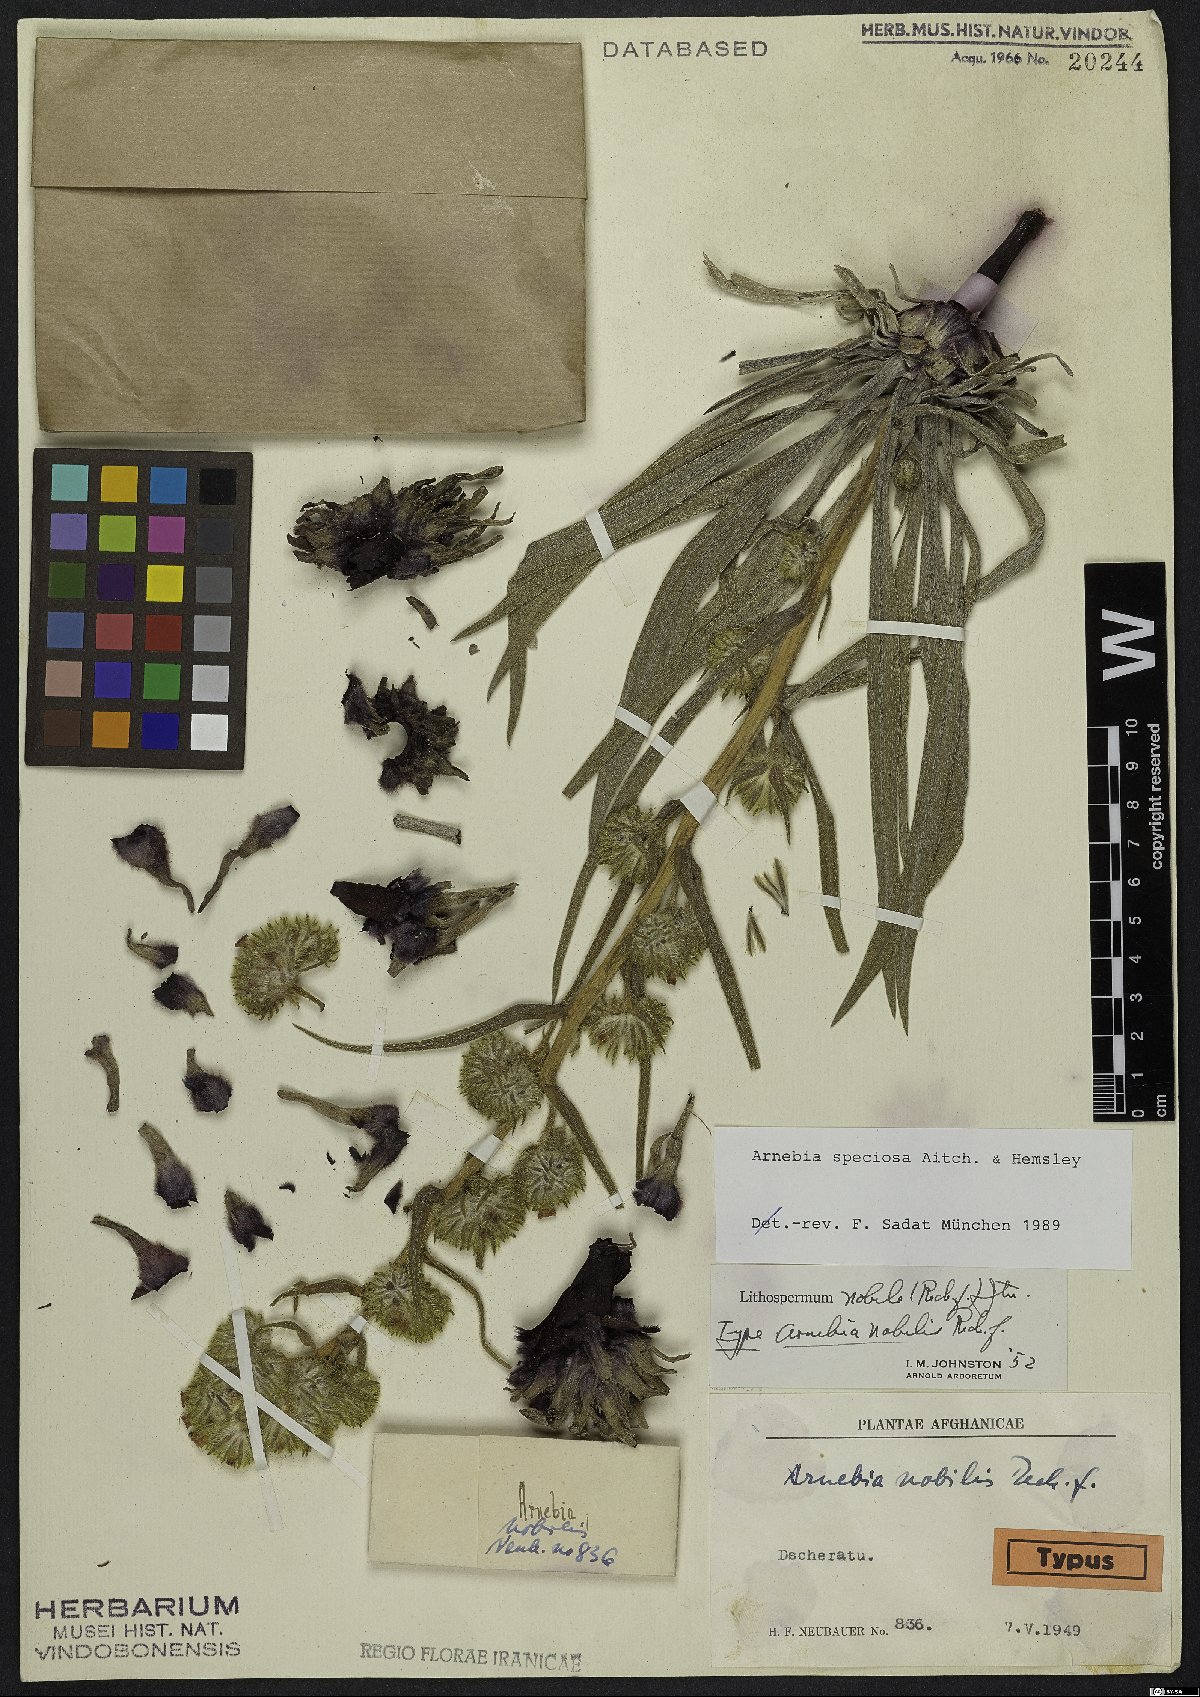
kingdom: Plantae
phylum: Tracheophyta
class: Magnoliopsida
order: Boraginales
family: Boraginaceae
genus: Arnebia
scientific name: Arnebia speciosa
